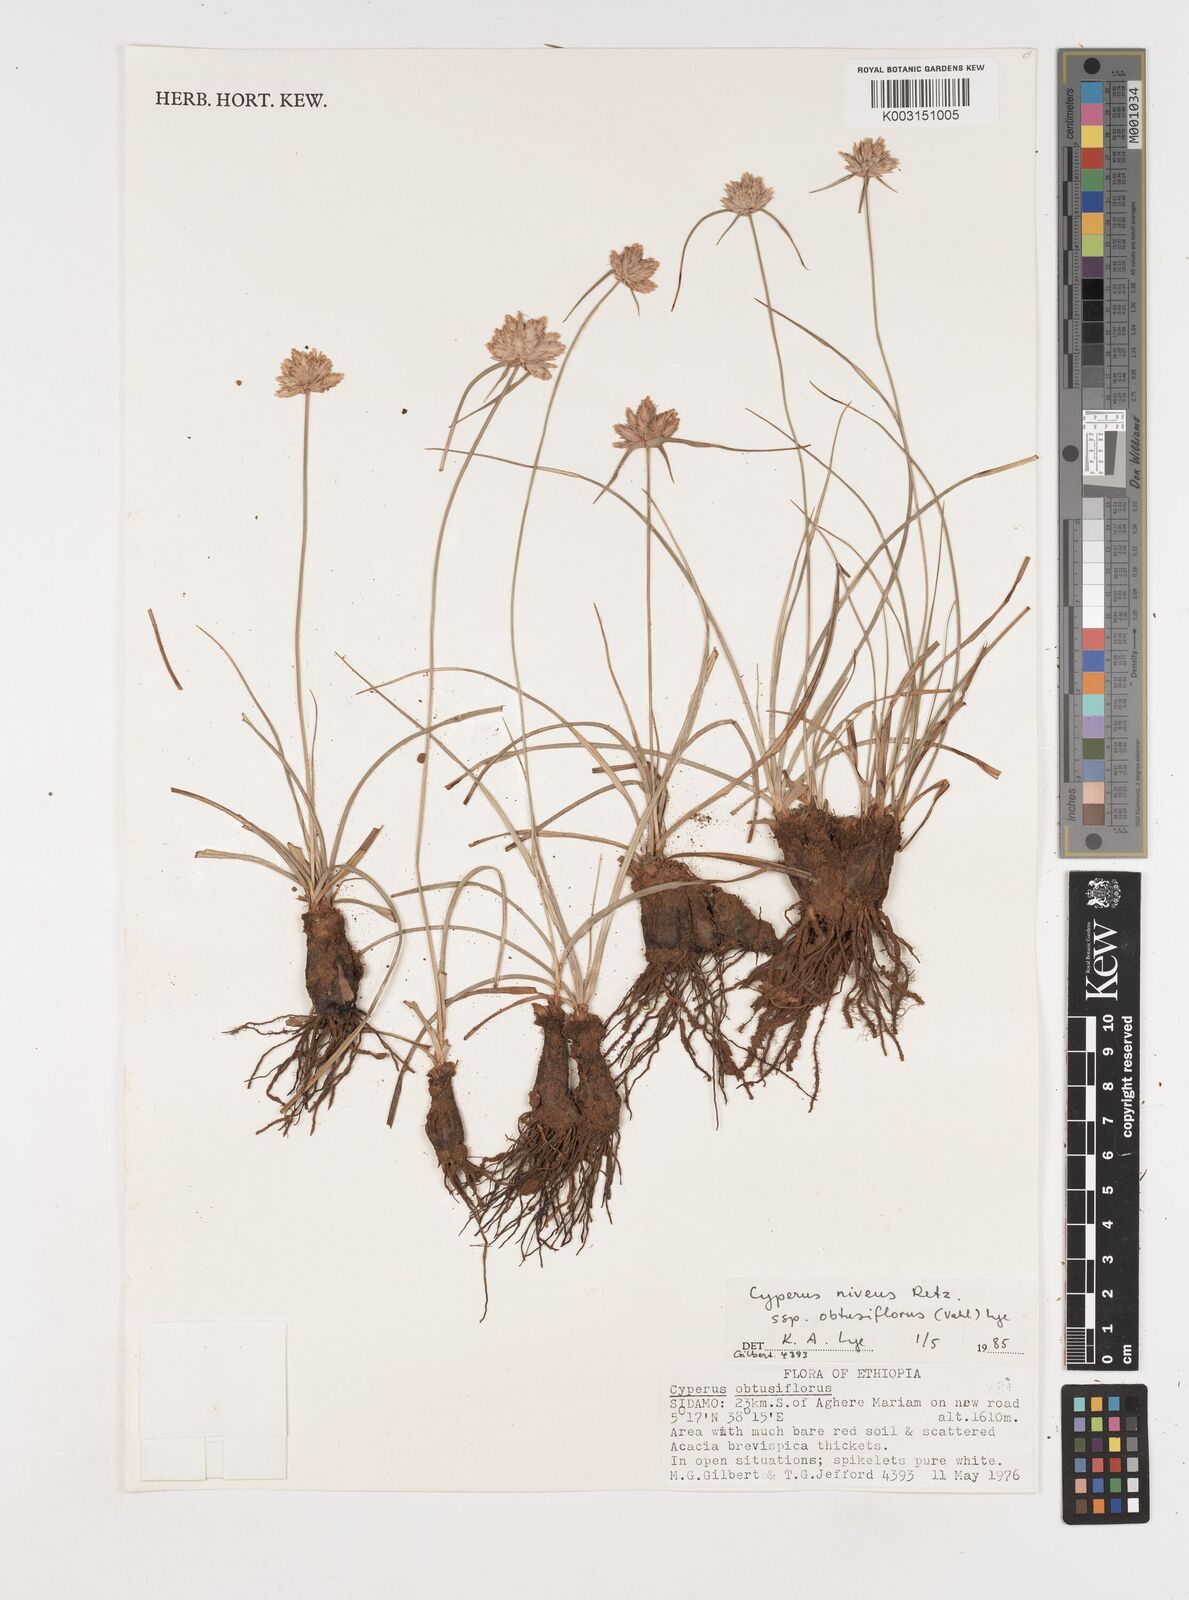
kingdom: Plantae
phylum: Tracheophyta
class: Liliopsida
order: Poales
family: Cyperaceae
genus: Cyperus
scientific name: Cyperus niveus
